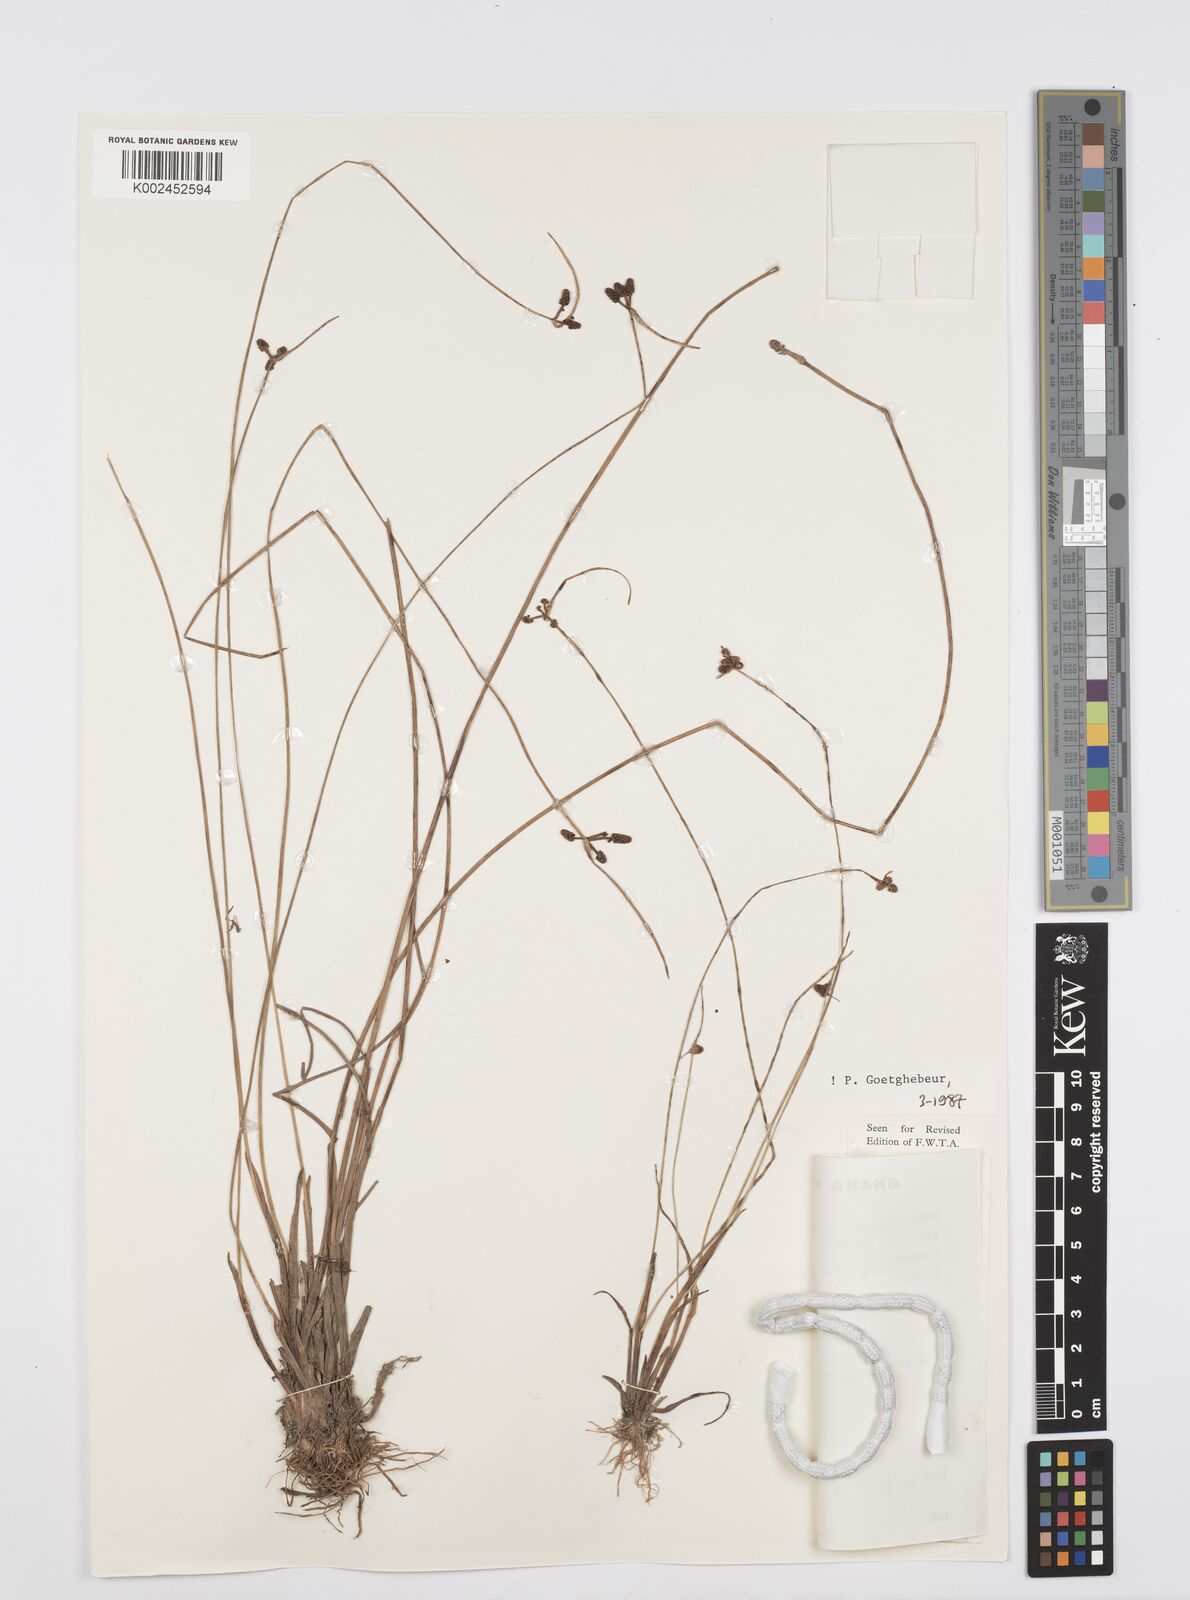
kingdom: Plantae
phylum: Tracheophyta
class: Liliopsida
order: Poales
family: Cyperaceae
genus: Cyperus
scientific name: Cyperus prieurianus
